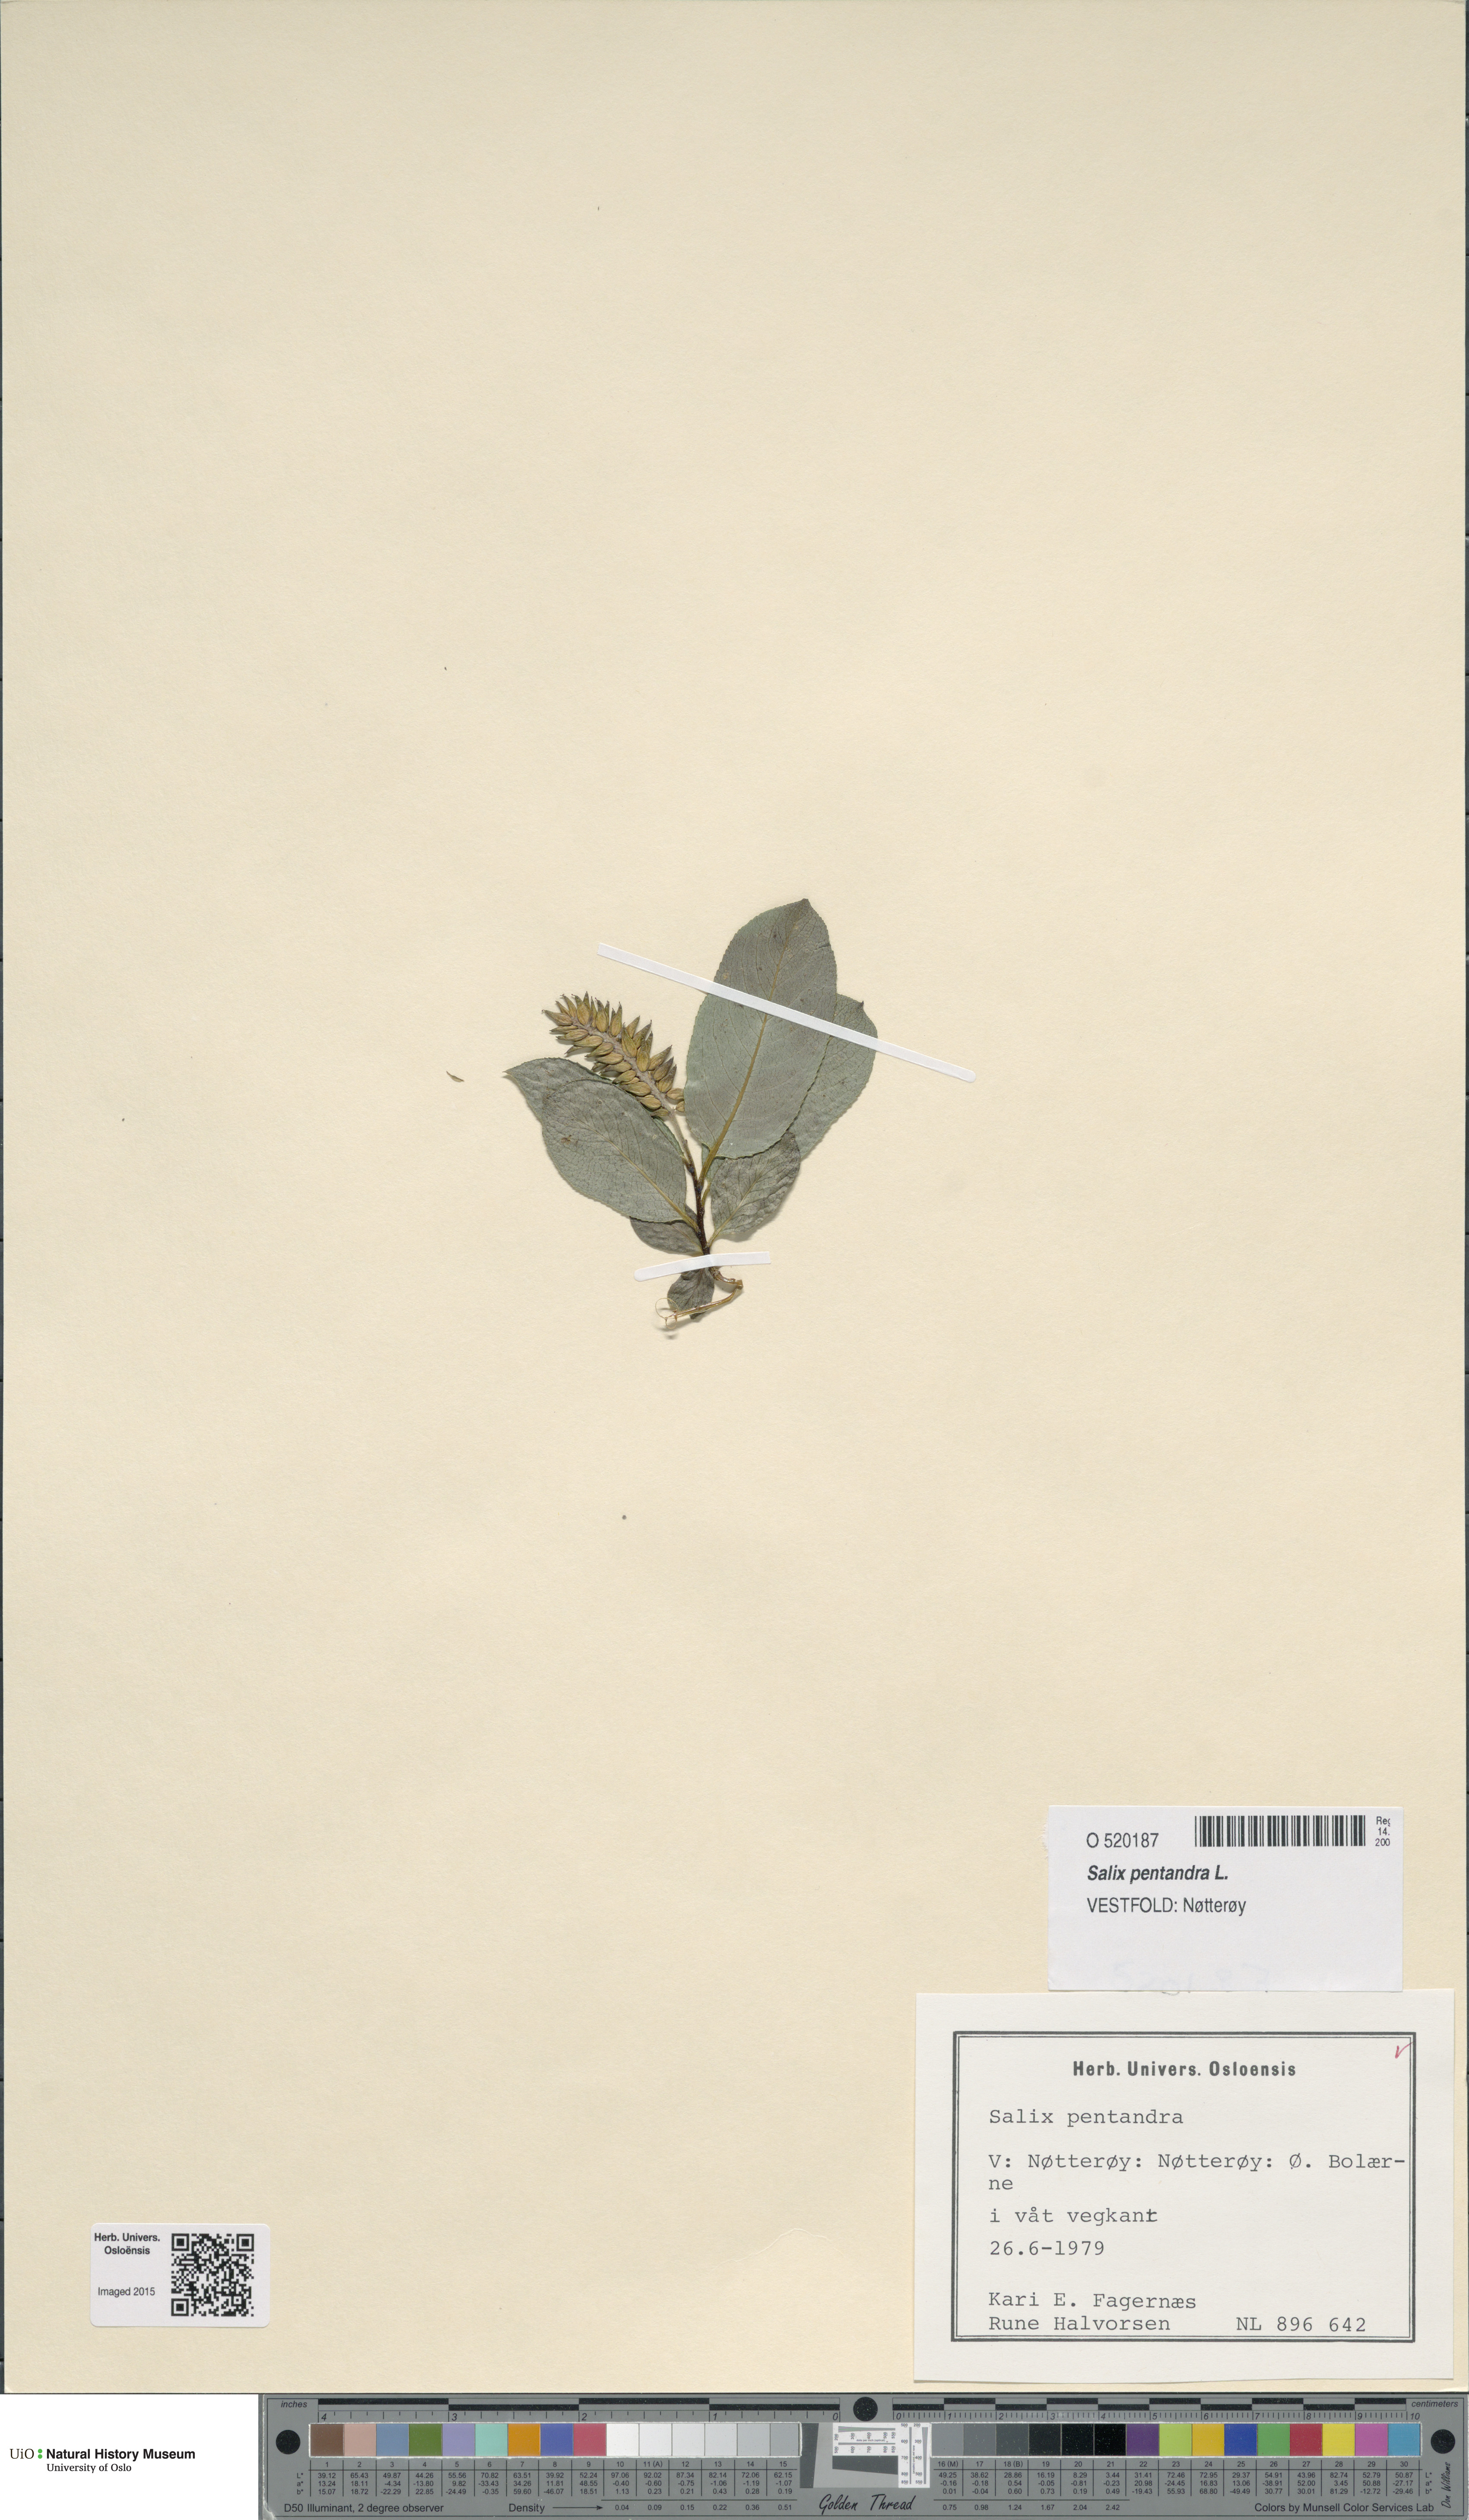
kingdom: Plantae
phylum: Tracheophyta
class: Magnoliopsida
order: Malpighiales
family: Salicaceae
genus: Salix
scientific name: Salix pentandra
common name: Bay willow
